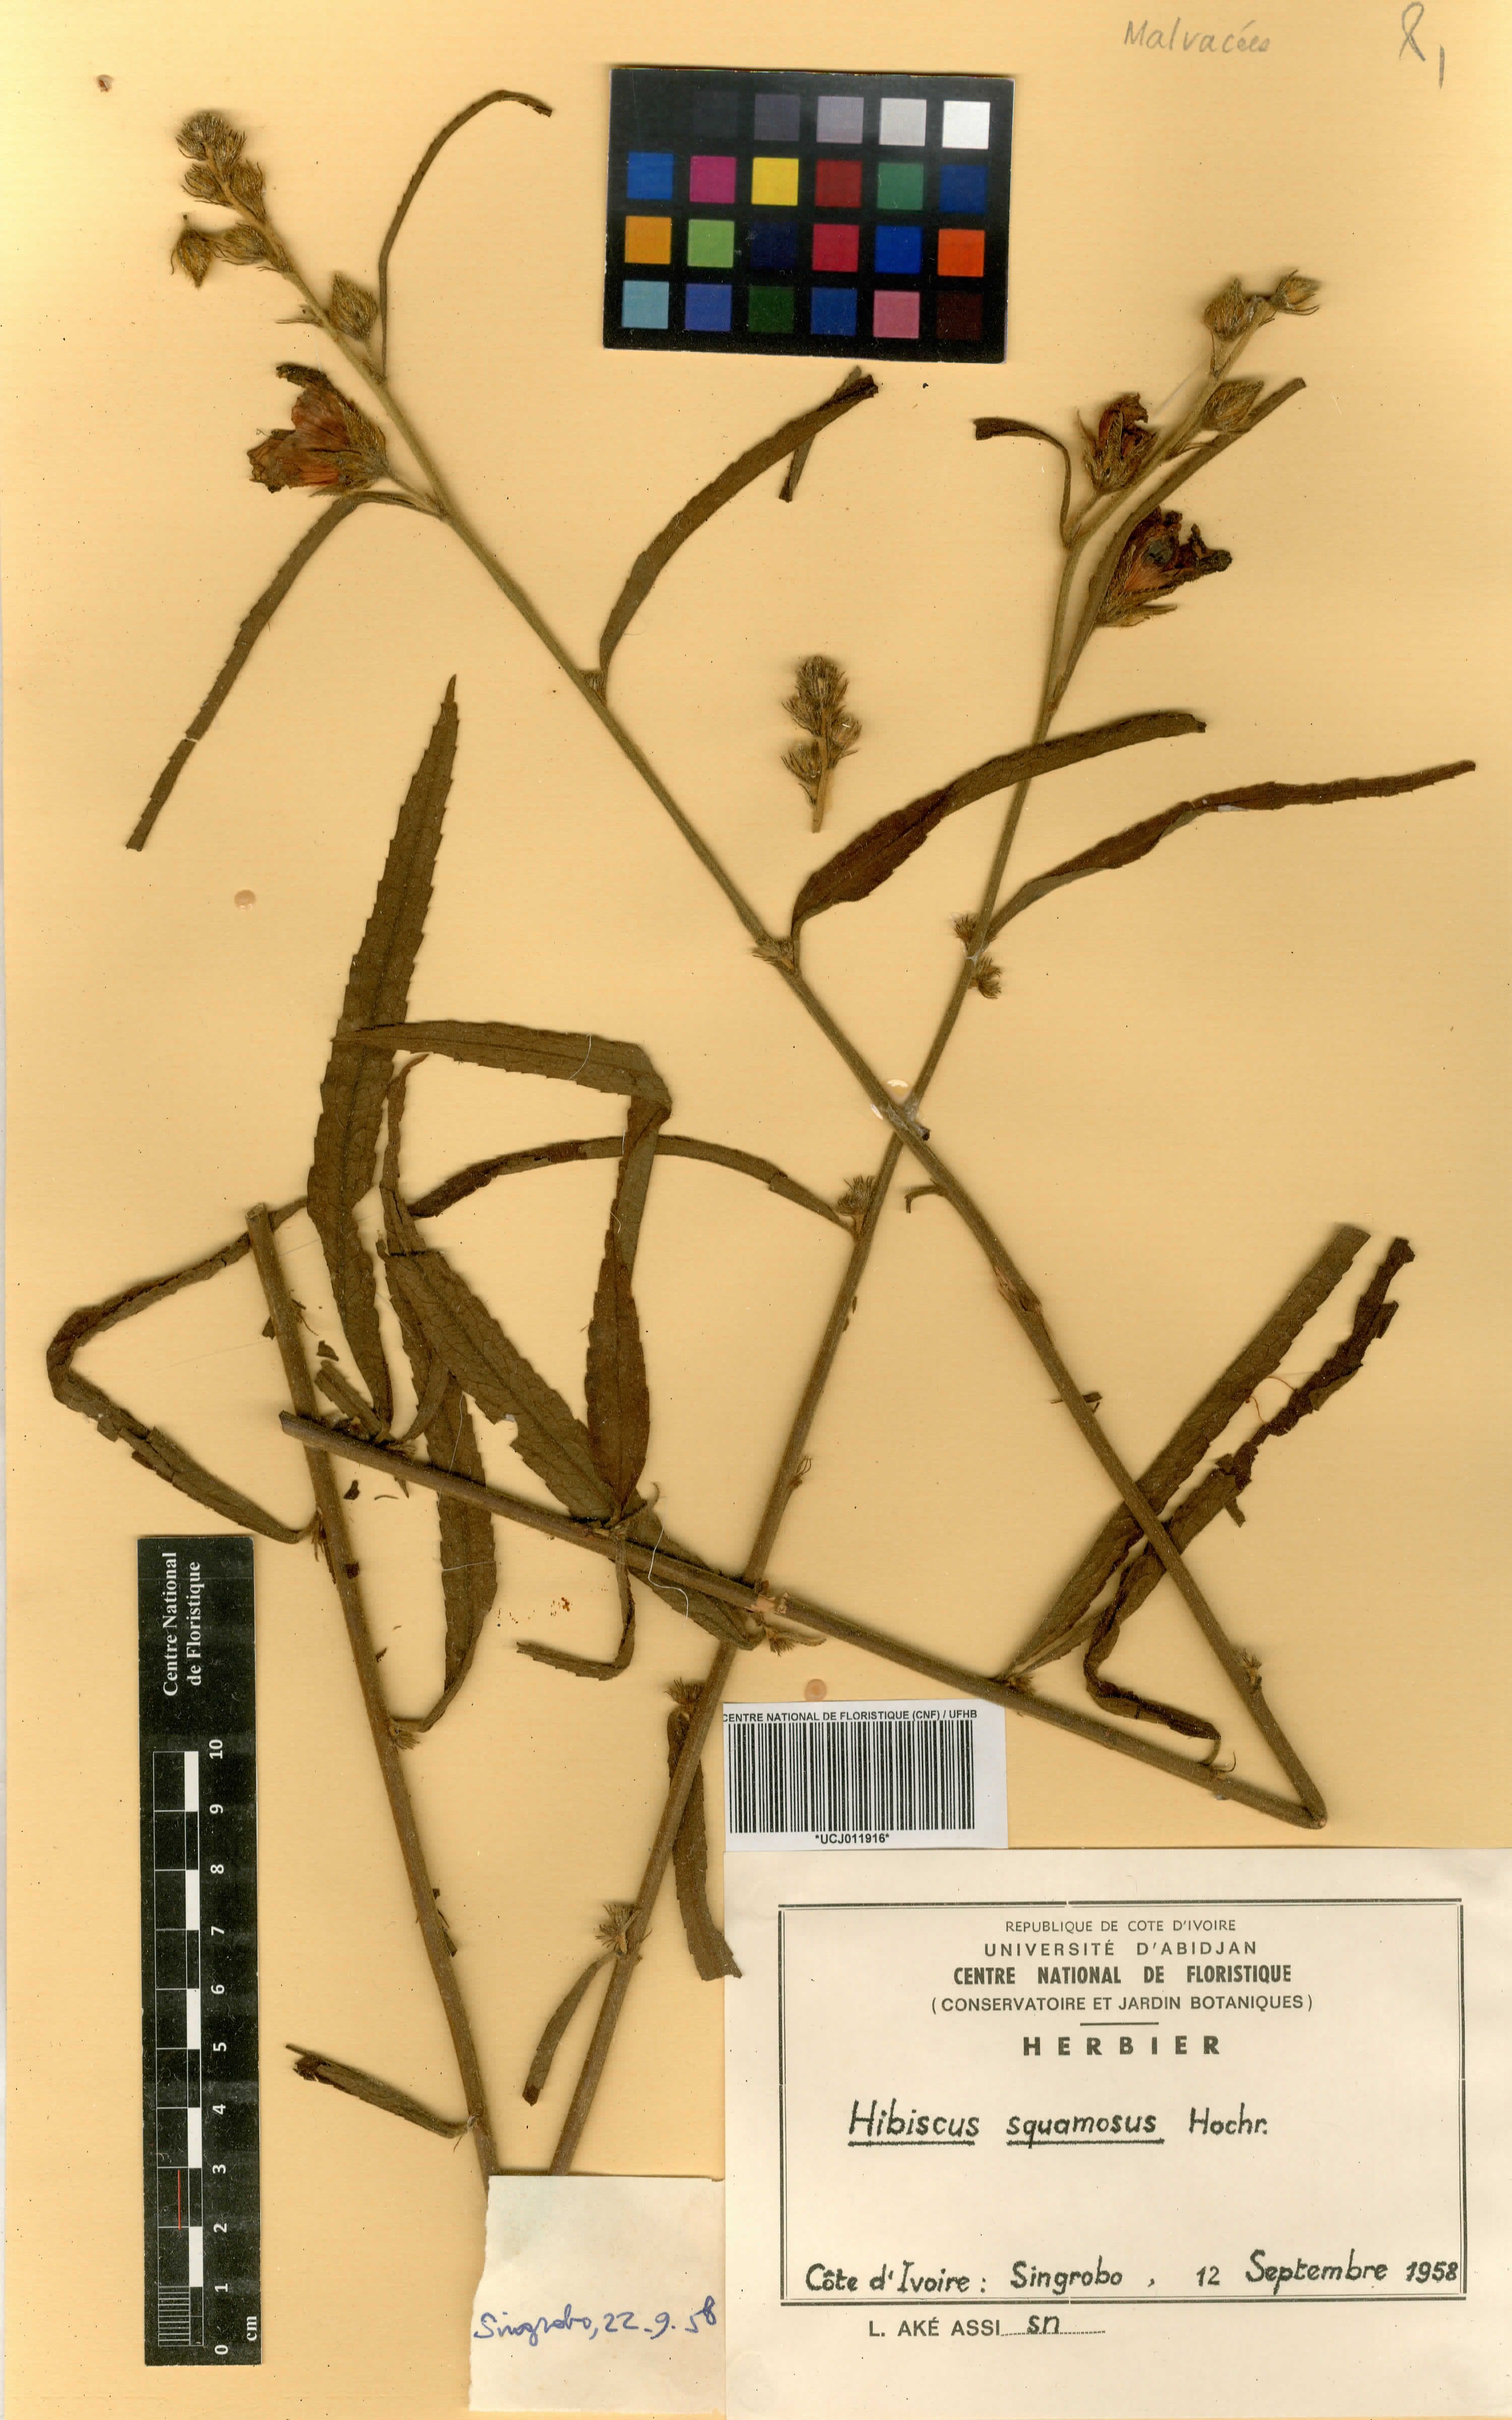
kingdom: Plantae
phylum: Tracheophyta
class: Magnoliopsida
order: Malvales
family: Malvaceae
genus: Hibiscus
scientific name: Hibiscus squamosus
